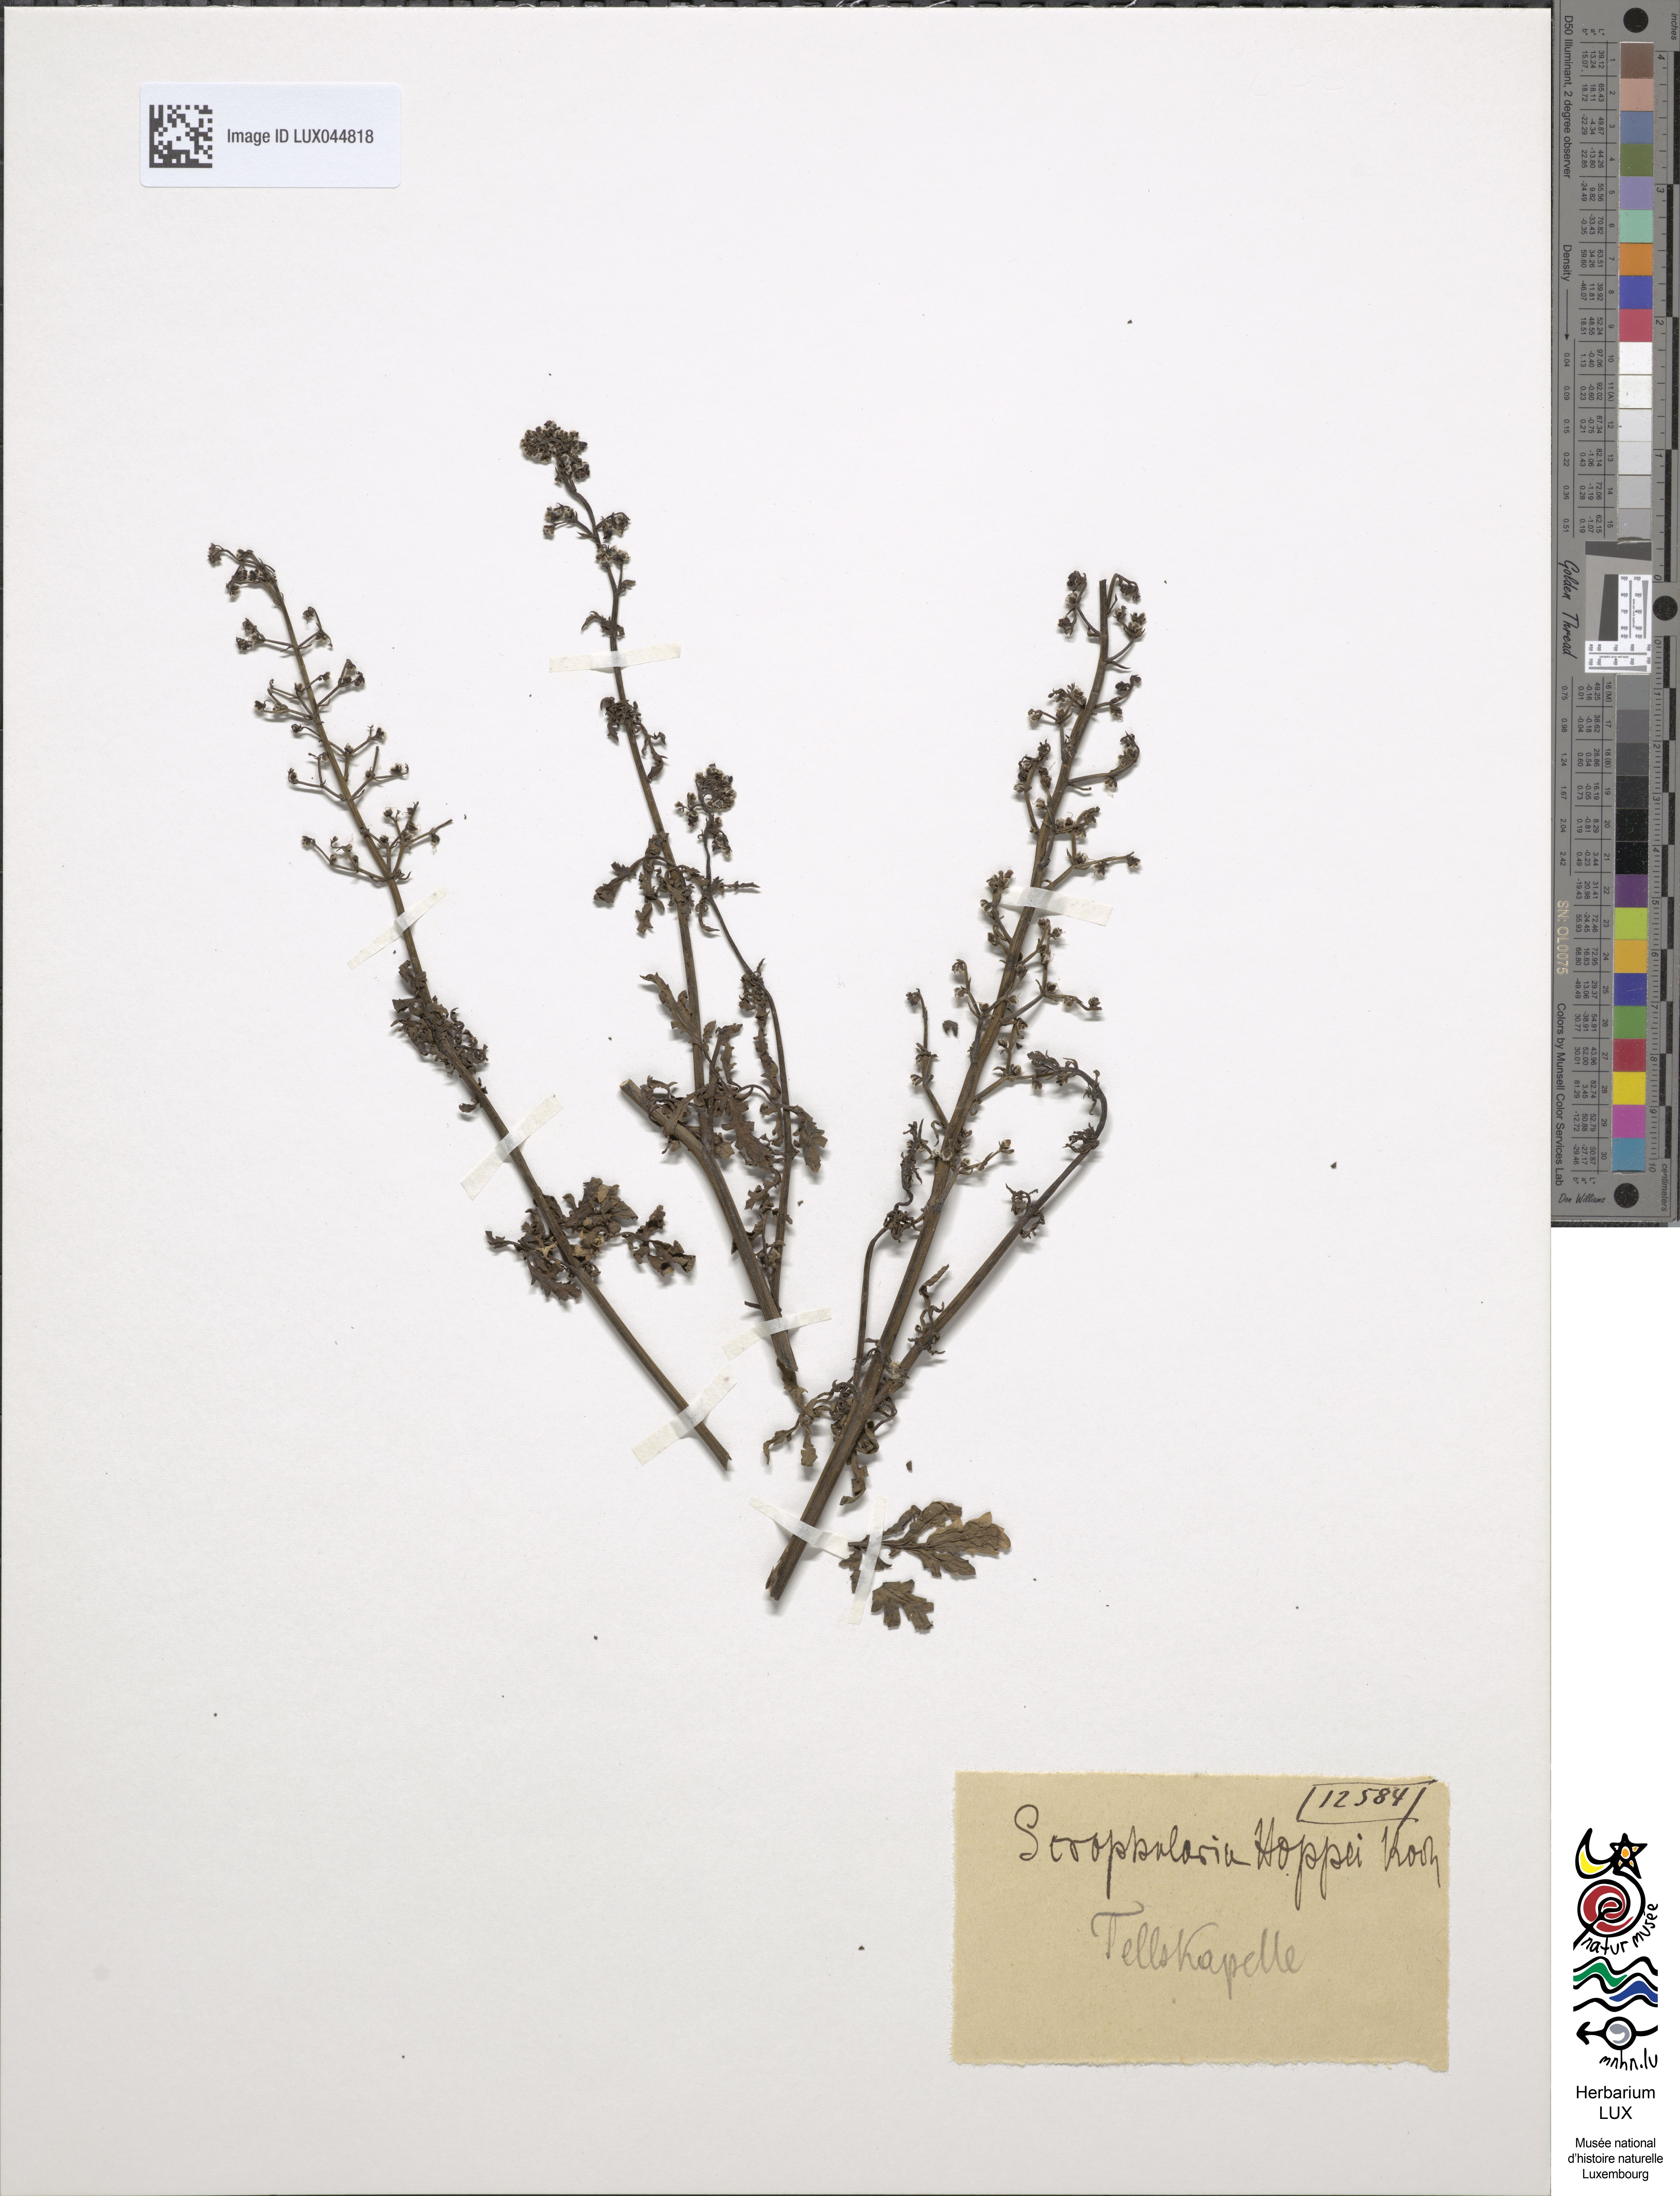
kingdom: Plantae
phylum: Tracheophyta
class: Magnoliopsida
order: Lamiales
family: Scrophulariaceae
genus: Scrophularia
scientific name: Scrophularia canina
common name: French figwort
